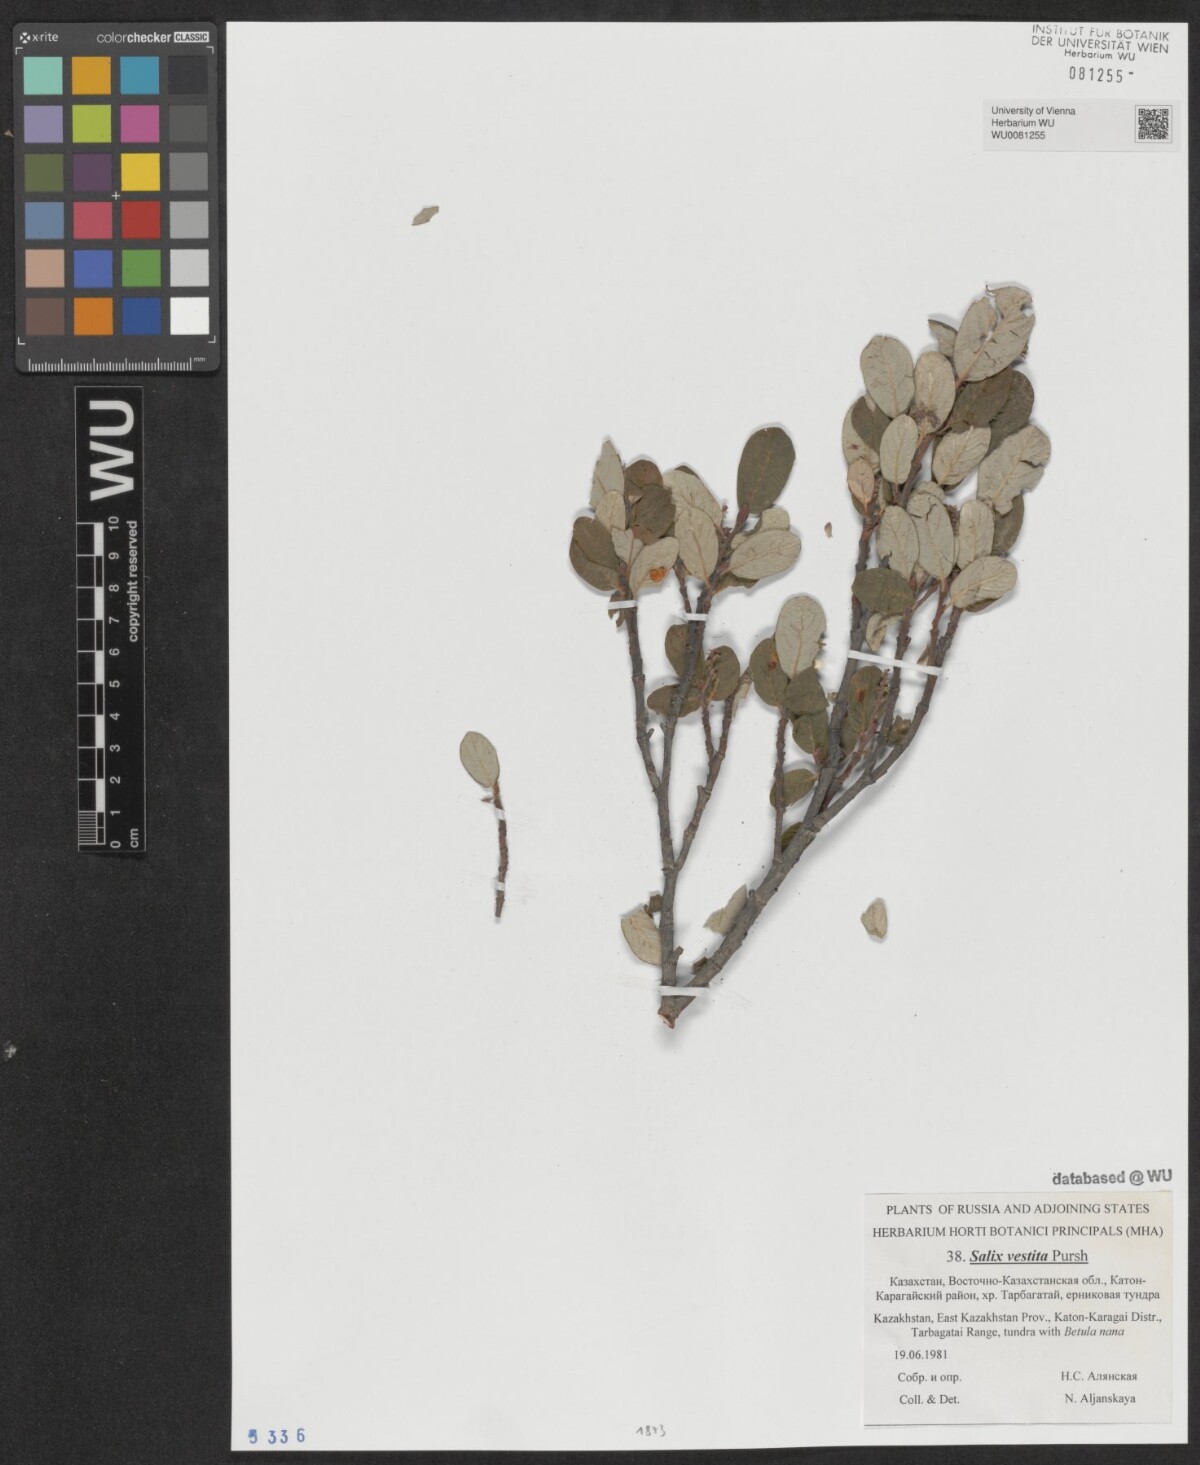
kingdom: Plantae
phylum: Tracheophyta
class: Magnoliopsida
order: Malpighiales
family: Salicaceae
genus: Salix
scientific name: Salix vestita
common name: Hairy willow
